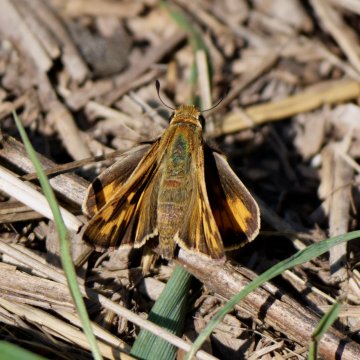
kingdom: Animalia
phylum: Arthropoda
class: Insecta
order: Lepidoptera
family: Hesperiidae
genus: Hylephila
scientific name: Hylephila phyleus
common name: Fiery Skipper
